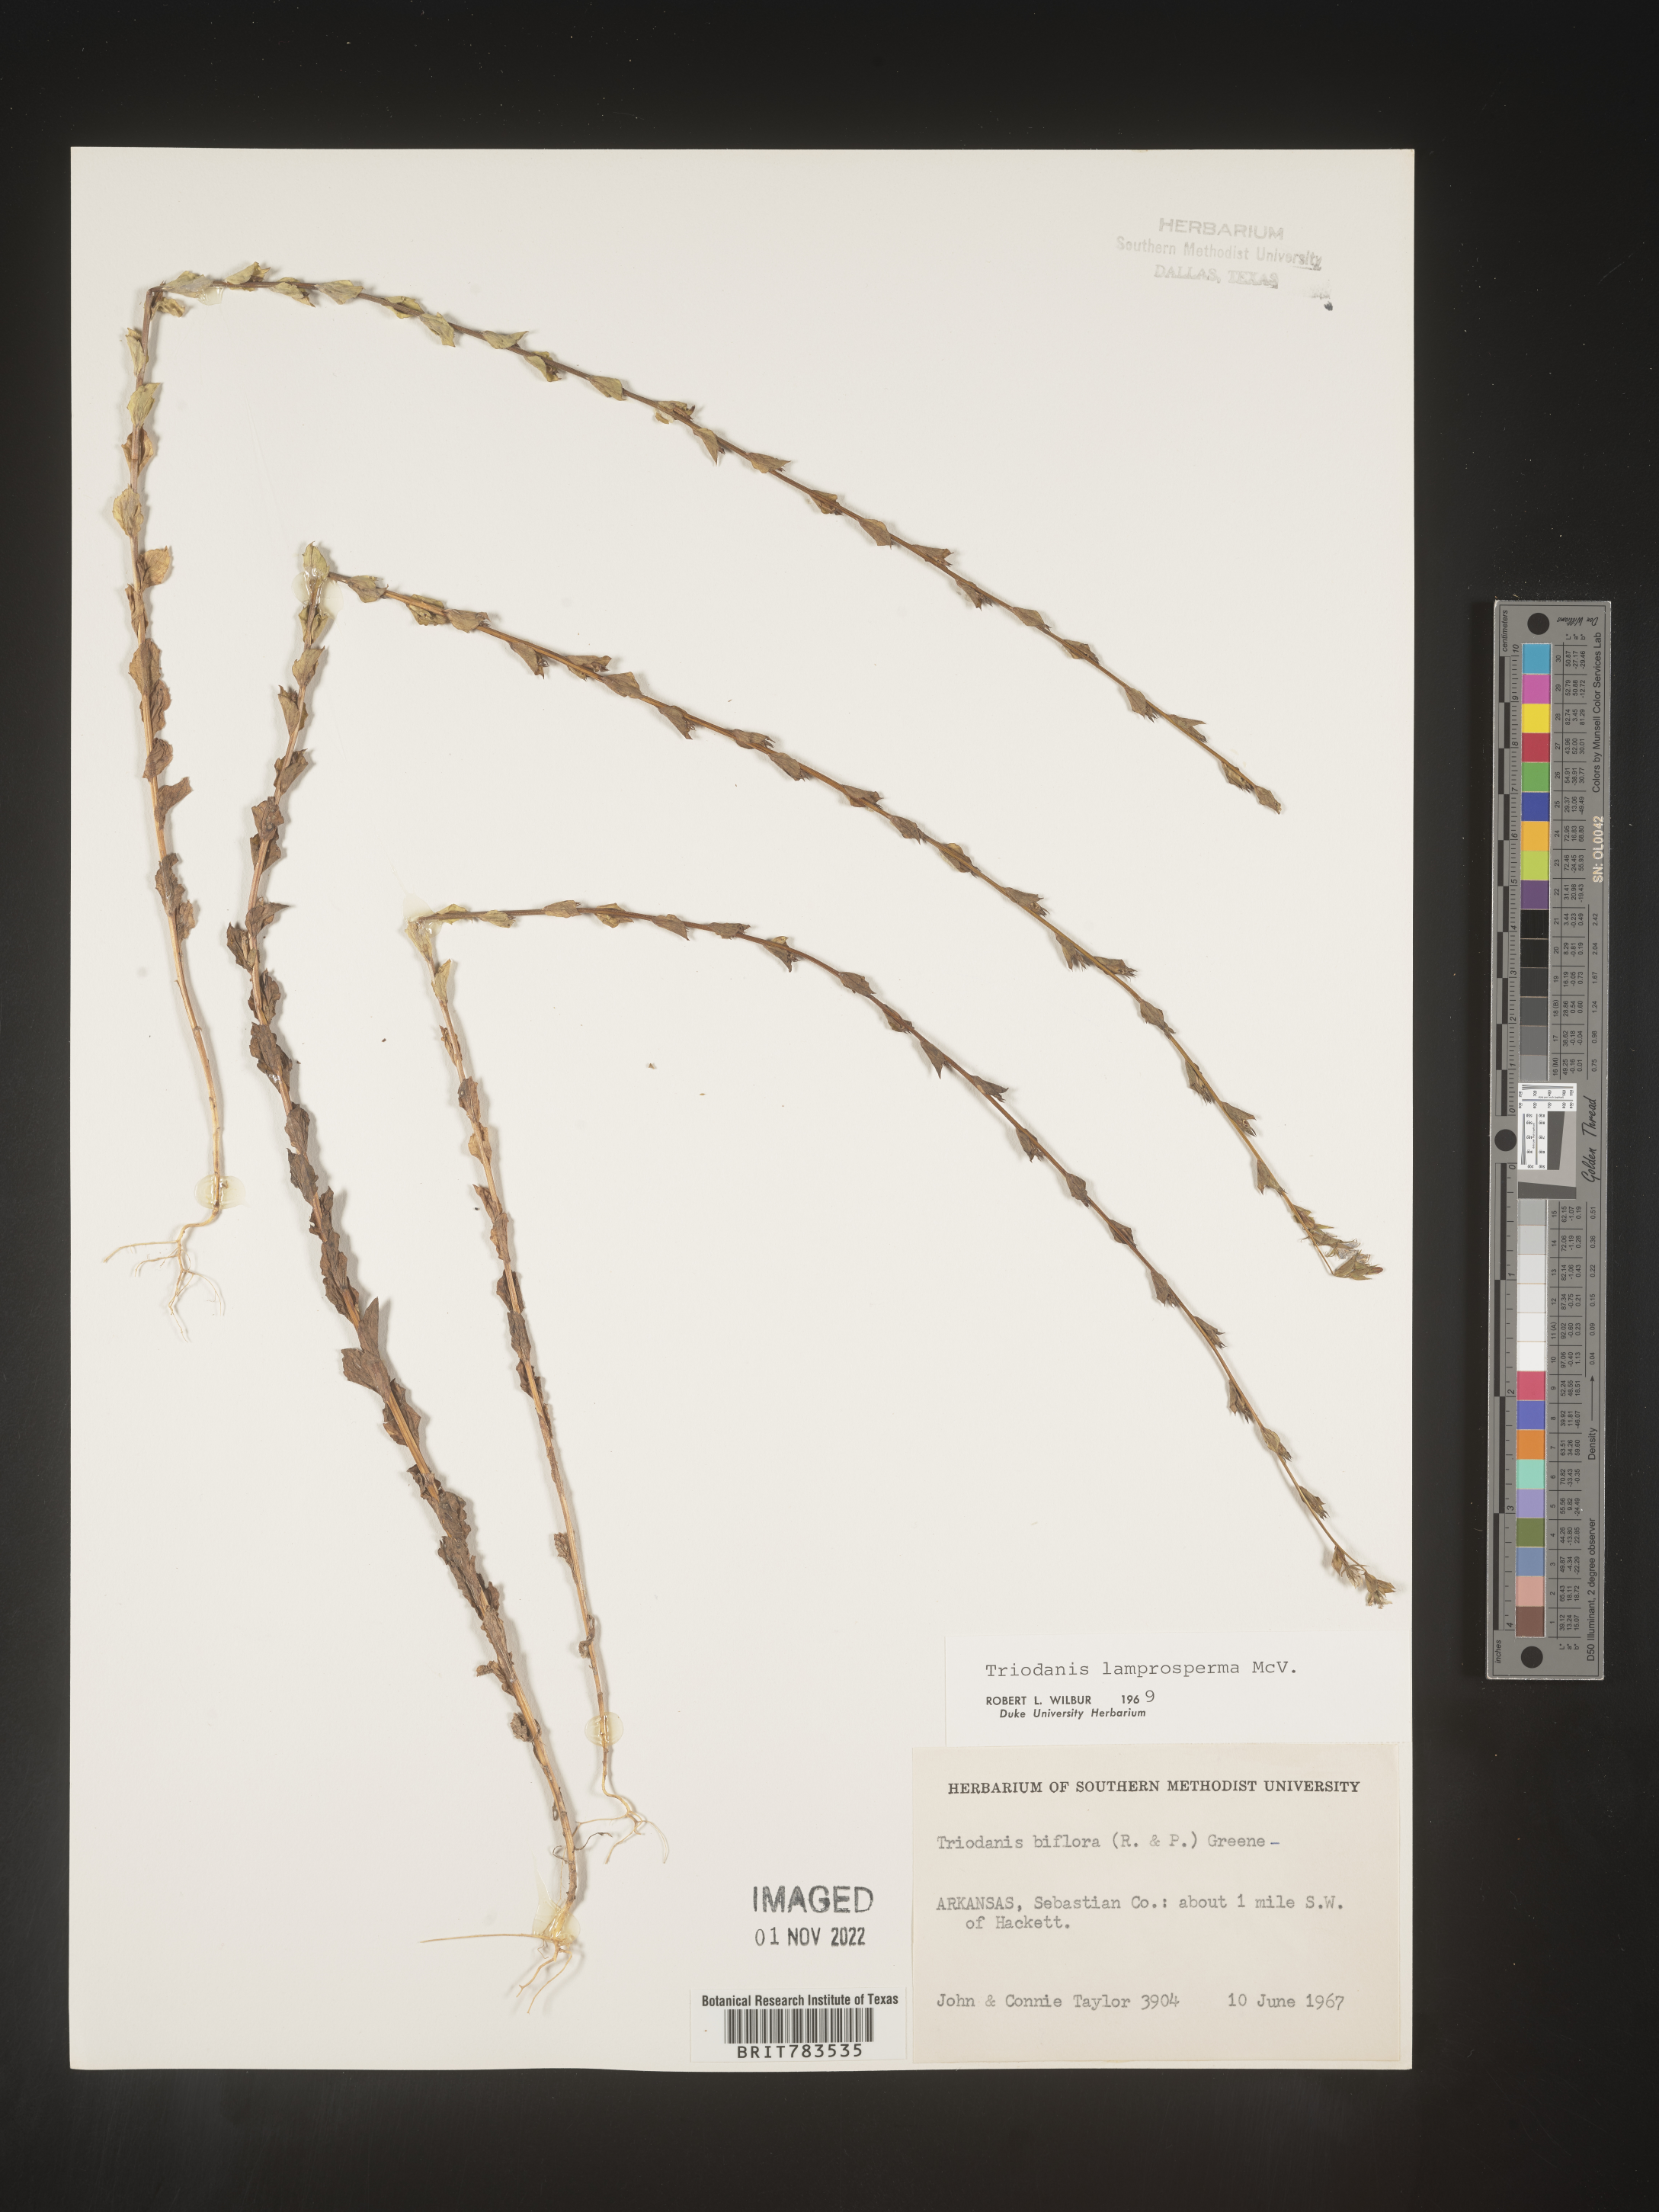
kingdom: Plantae
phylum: Tracheophyta
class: Magnoliopsida
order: Asterales
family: Campanulaceae
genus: Triodanis
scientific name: Triodanis lamprosperma
